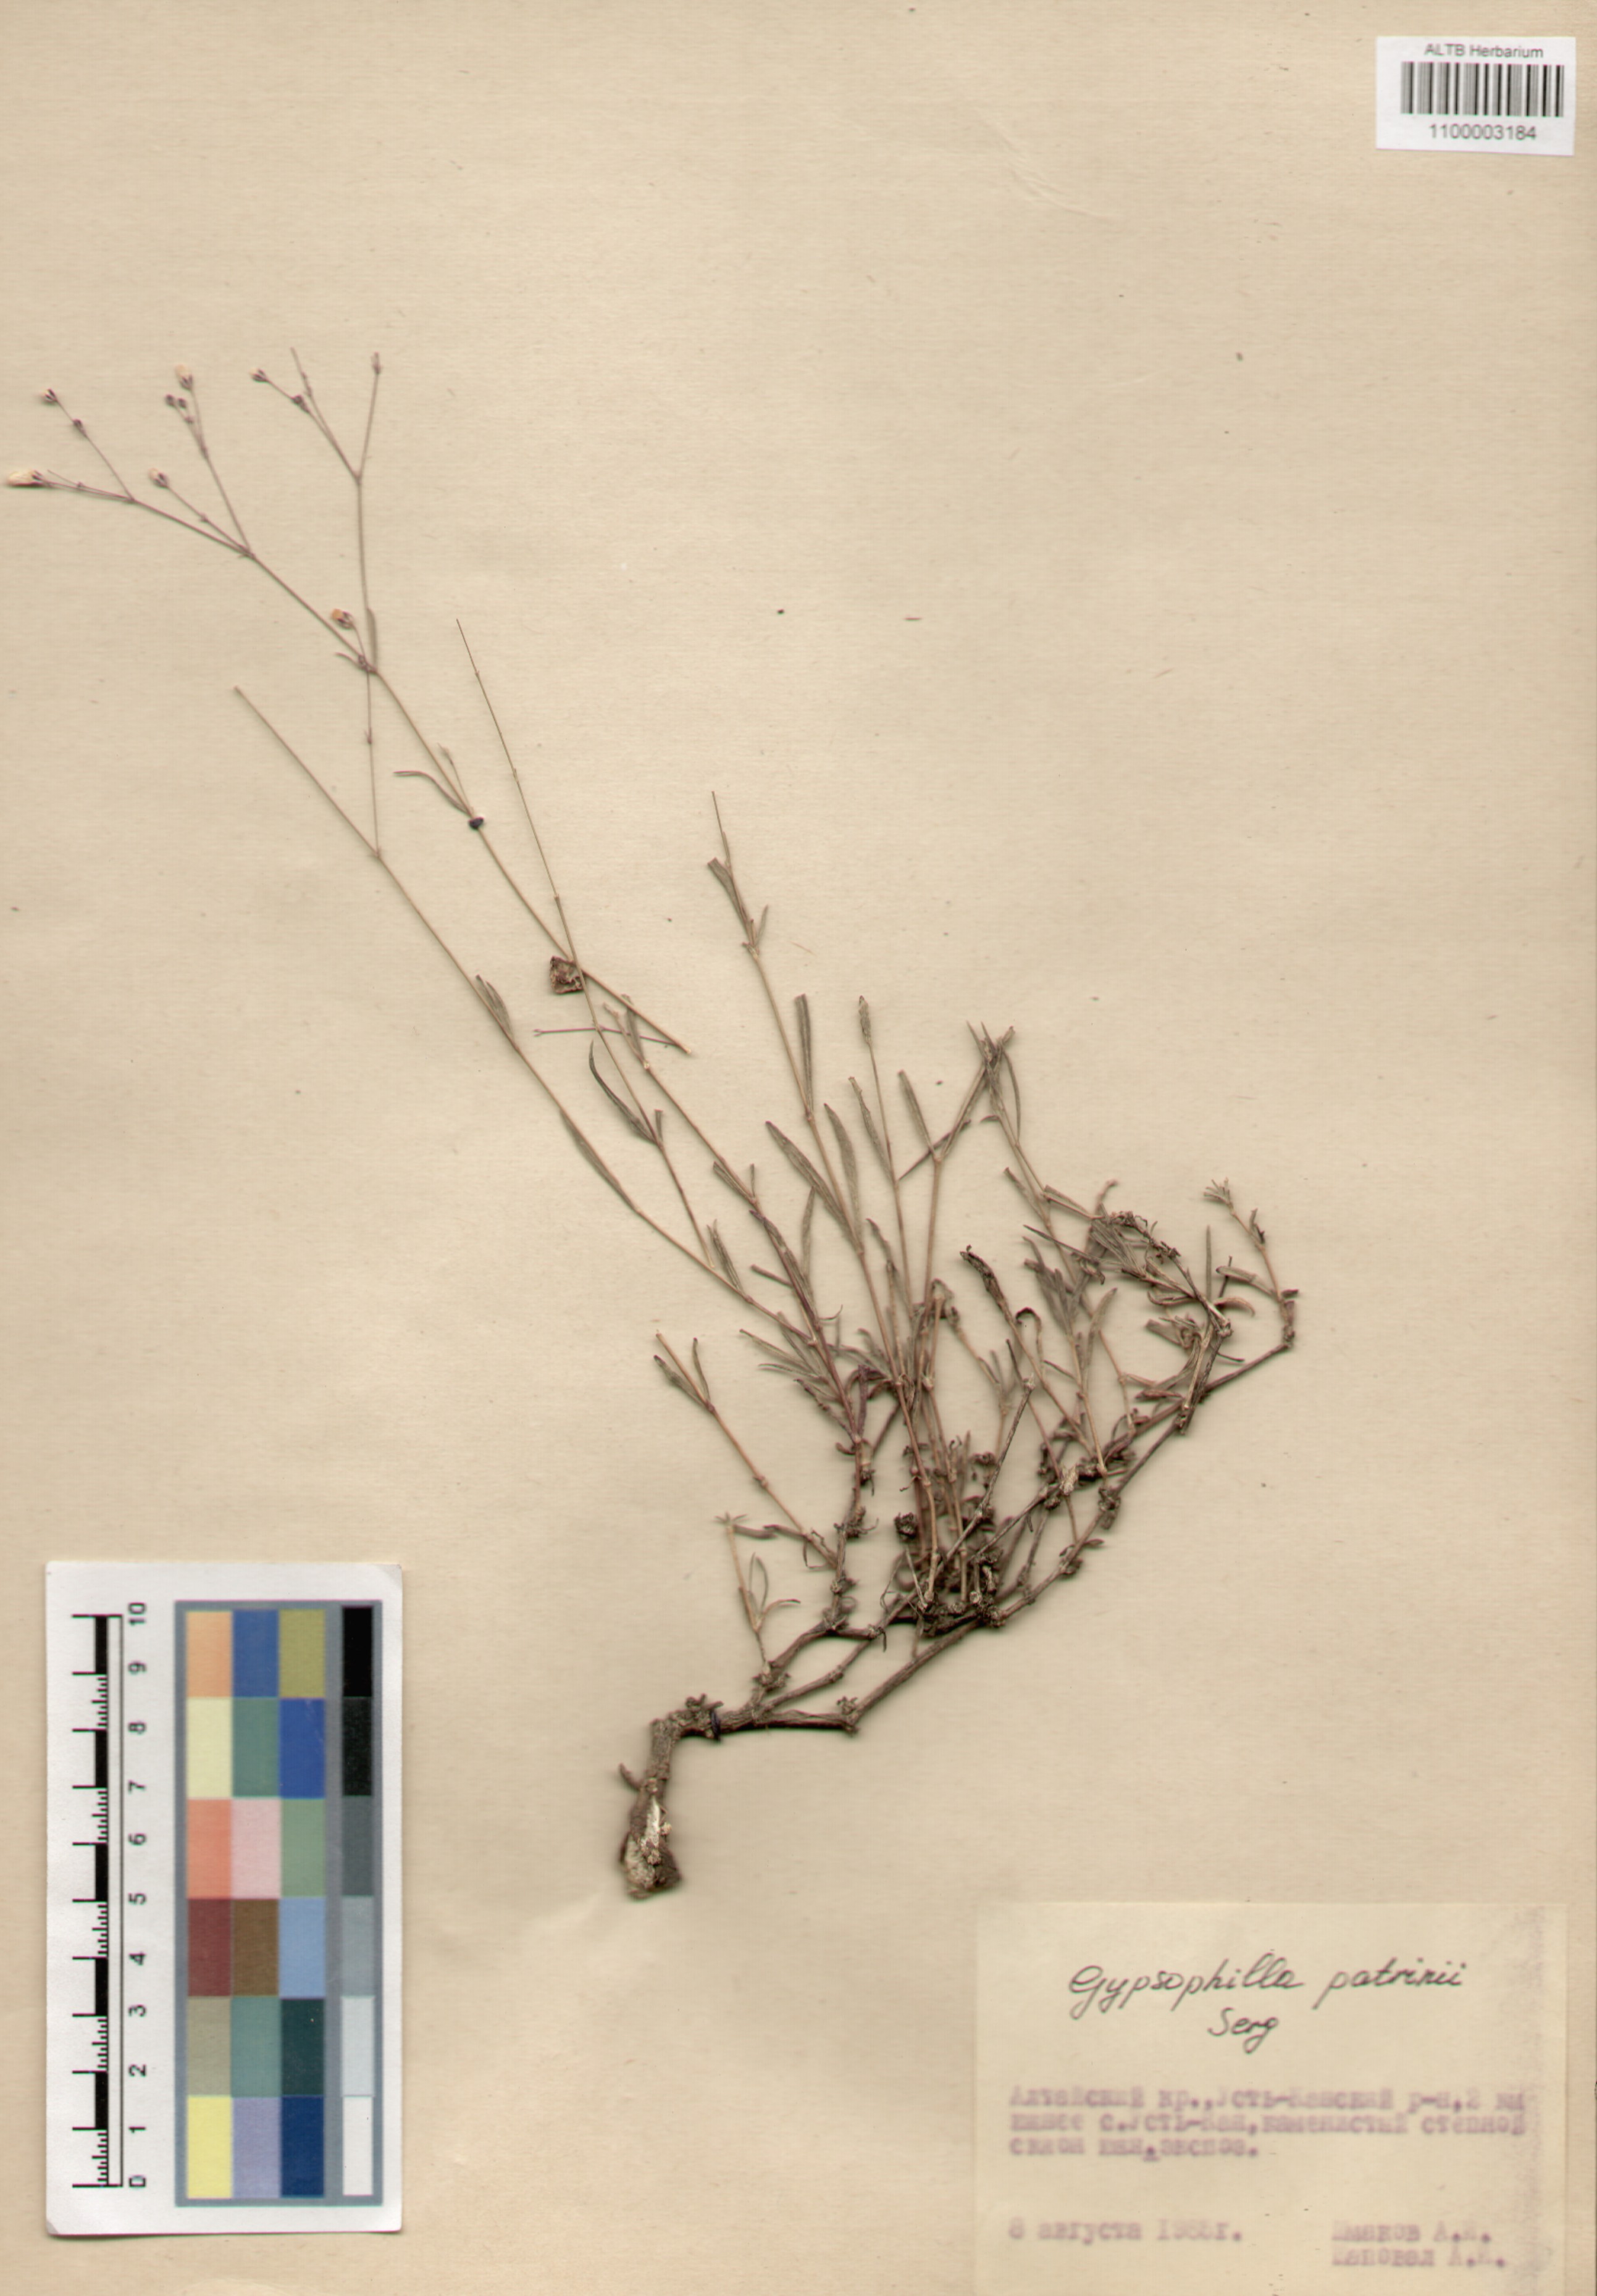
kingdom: Plantae
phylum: Tracheophyta
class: Magnoliopsida
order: Caryophyllales
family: Caryophyllaceae
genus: Gypsophila
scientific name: Gypsophila patrinii
